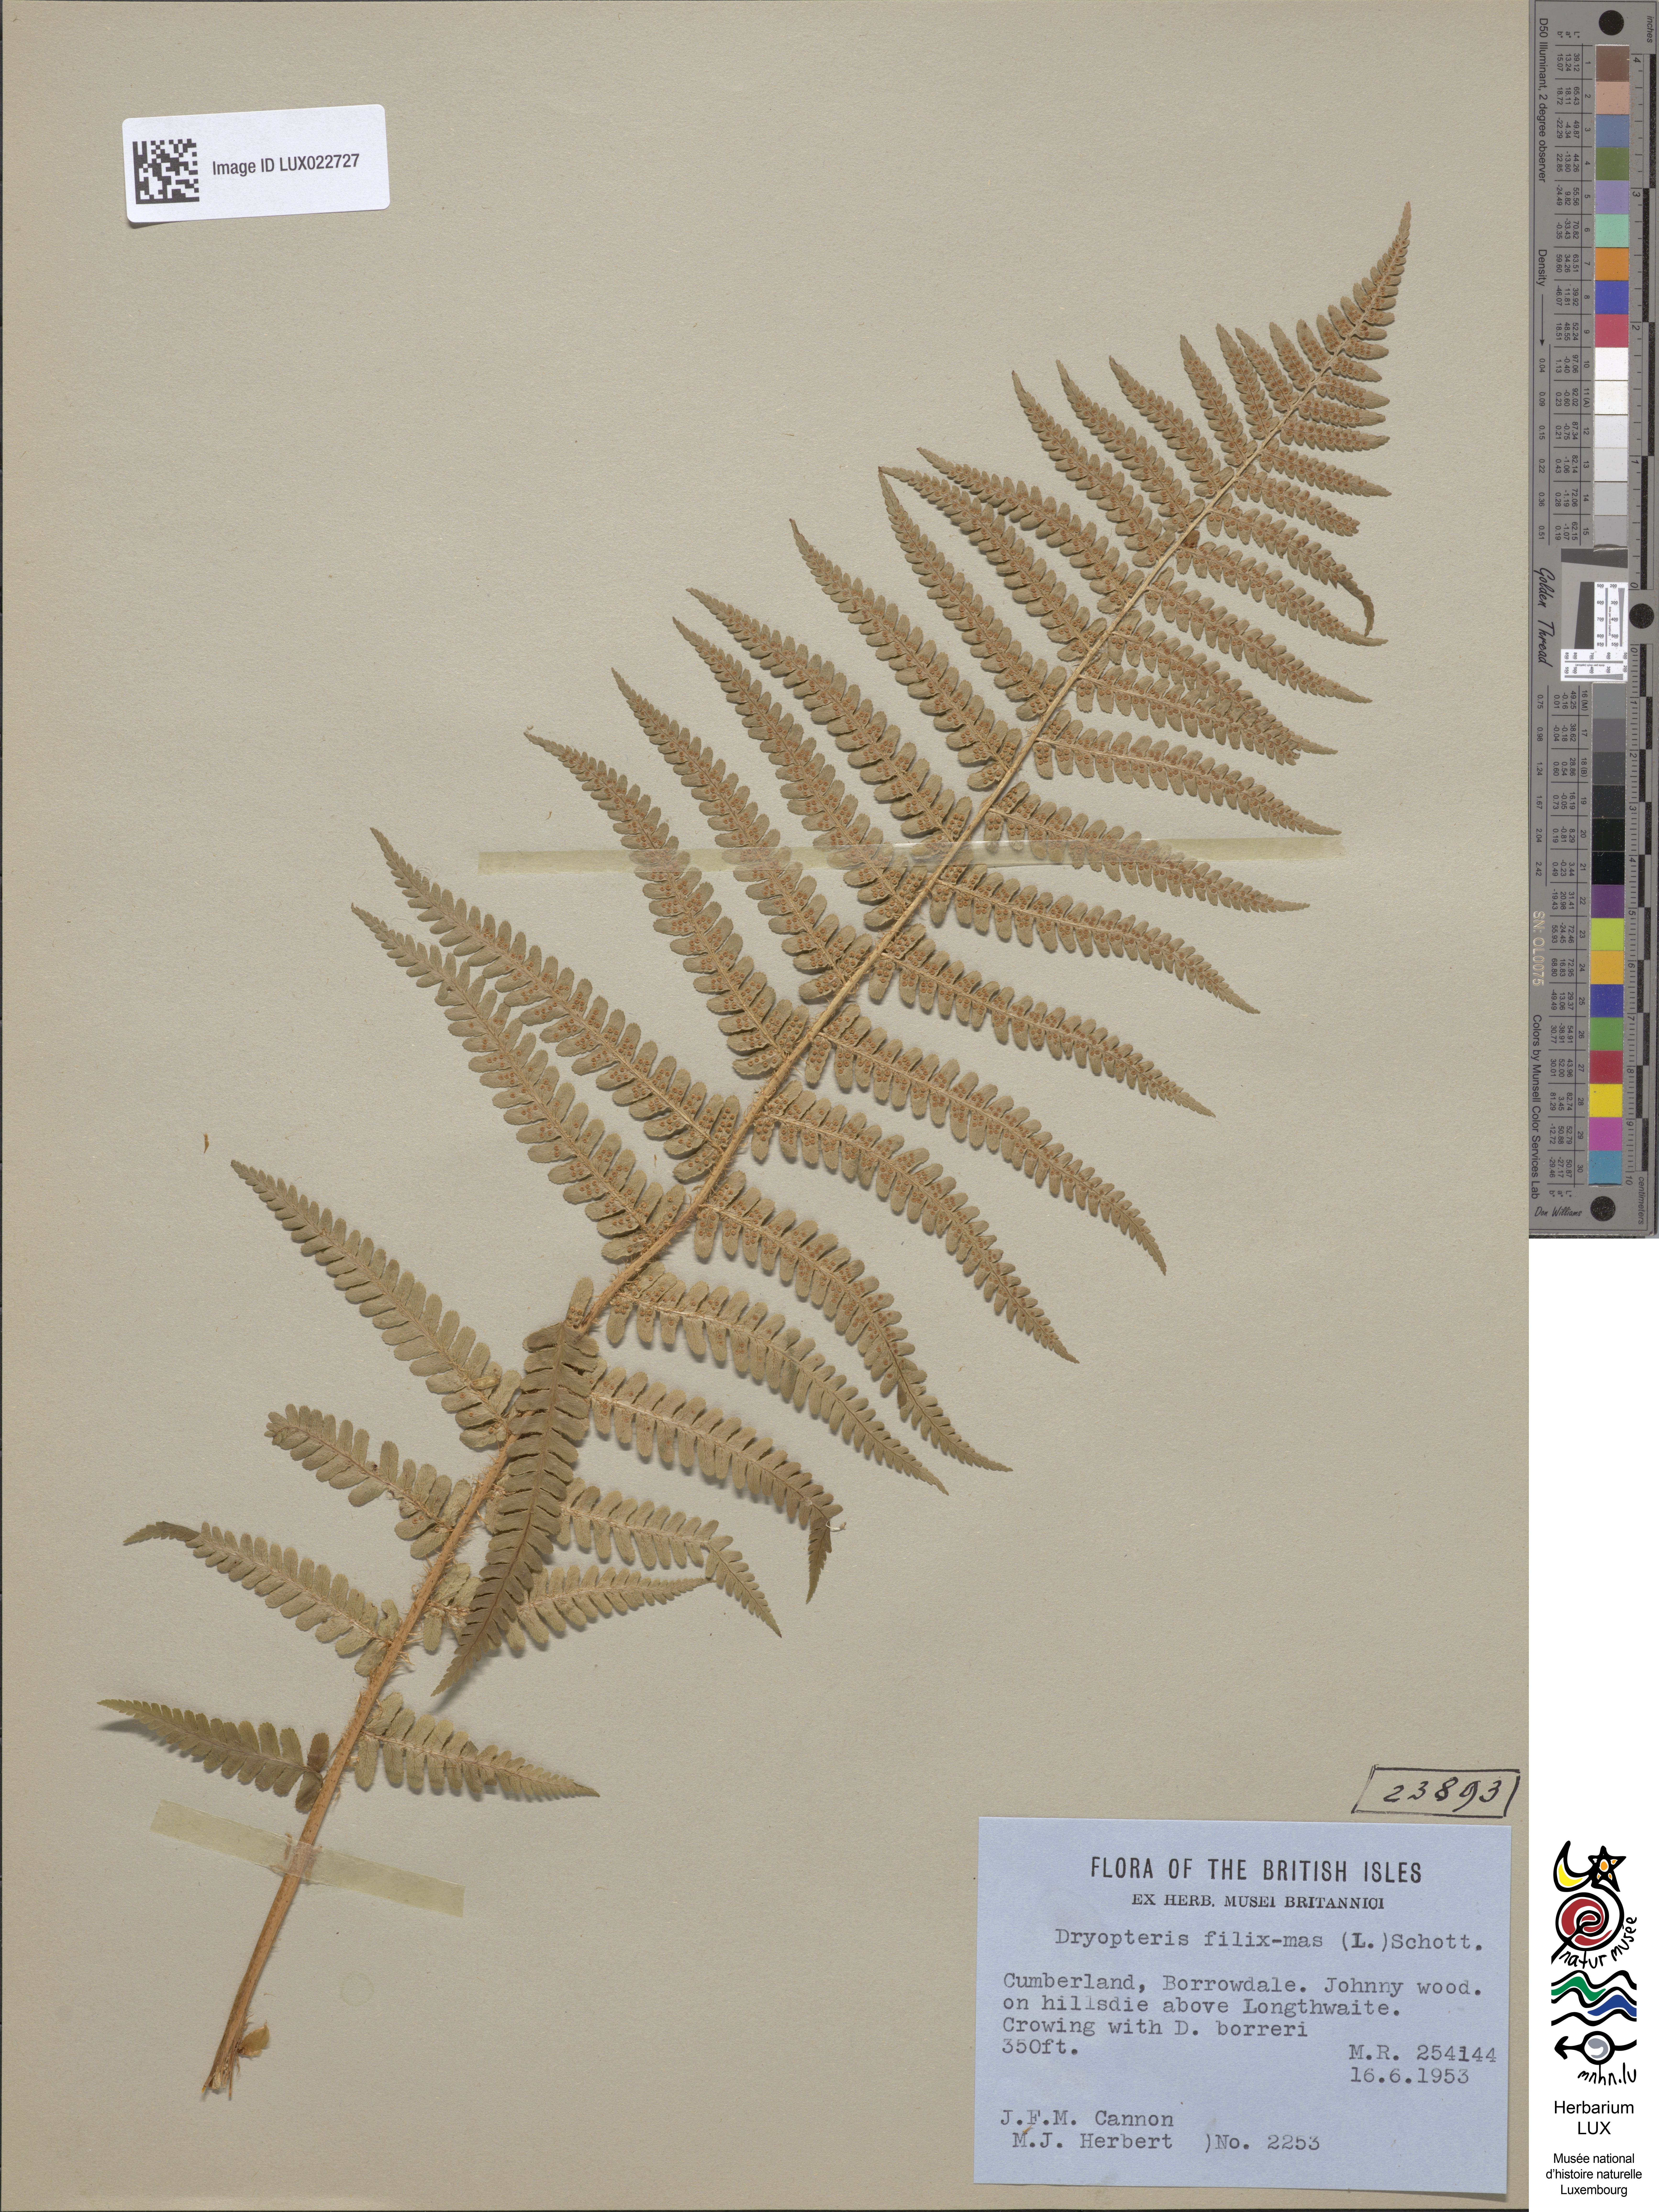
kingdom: Plantae
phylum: Tracheophyta
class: Polypodiopsida
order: Polypodiales
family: Dryopteridaceae
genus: Dryopteris
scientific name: Dryopteris filix-mas
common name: Male fern
